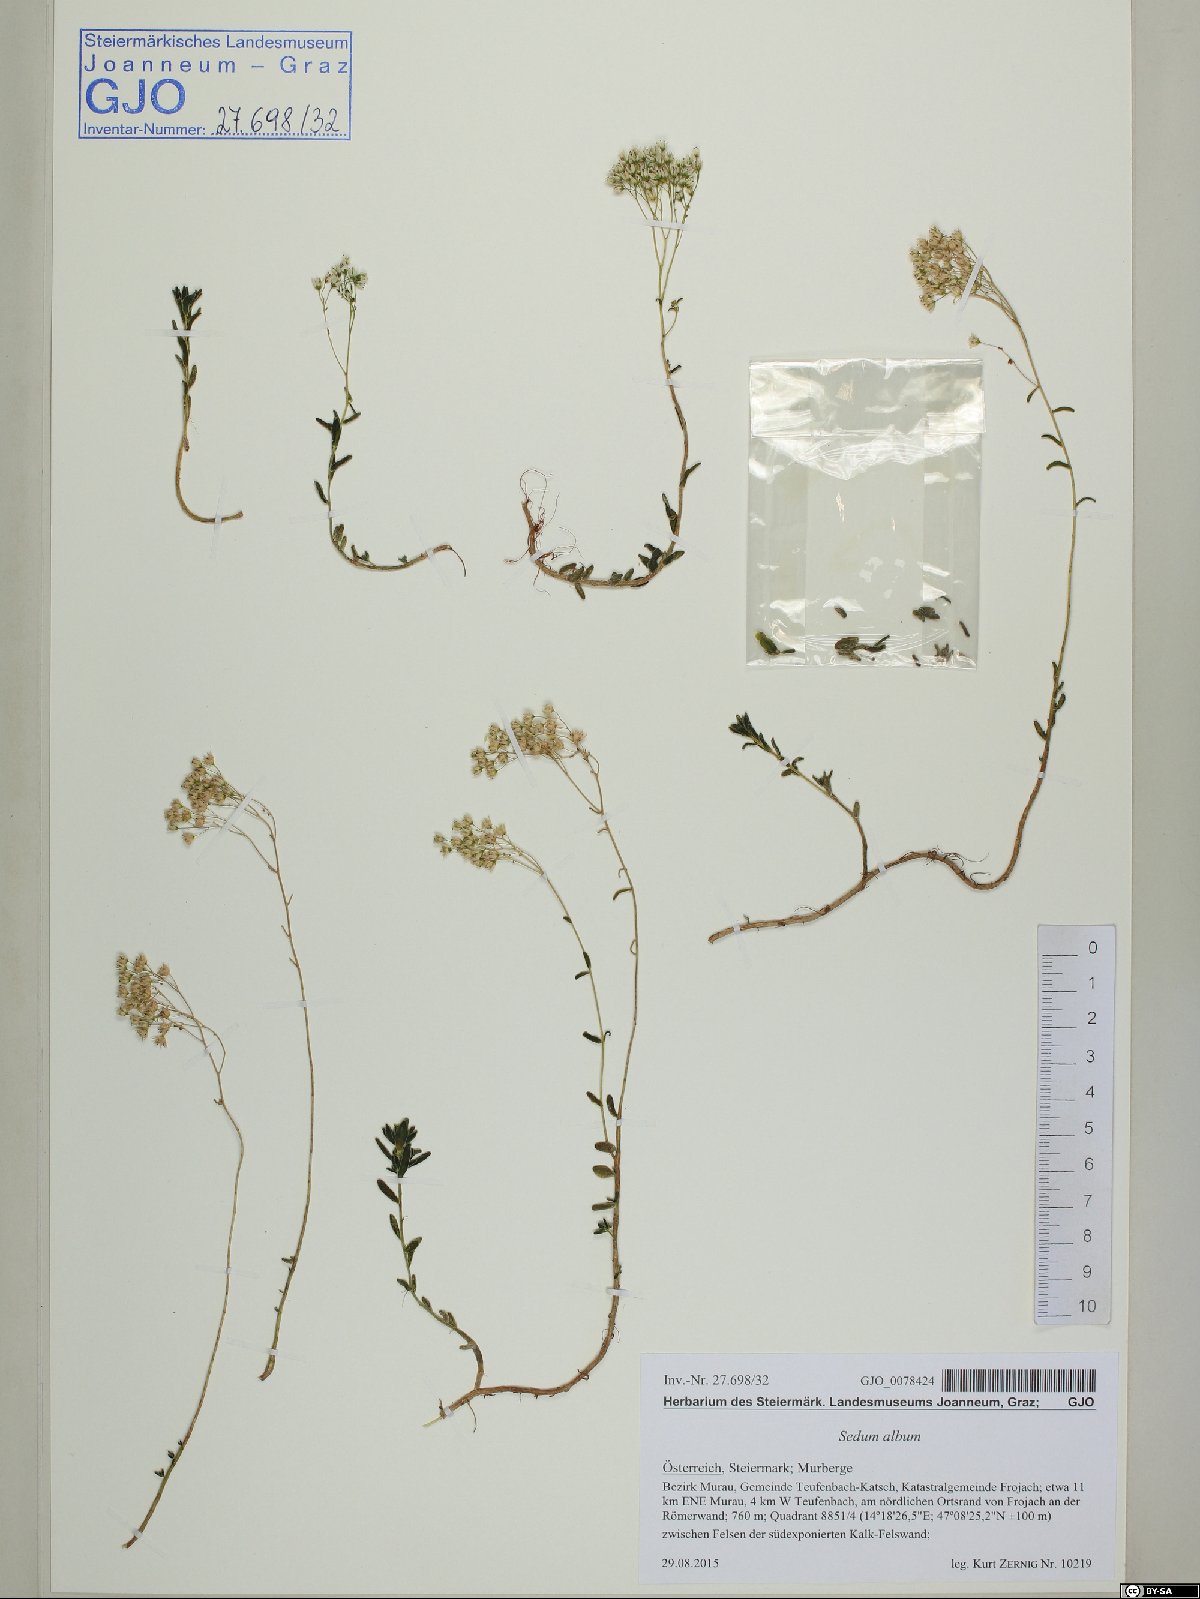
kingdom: Plantae
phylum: Tracheophyta
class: Magnoliopsida
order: Saxifragales
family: Crassulaceae
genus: Sedum
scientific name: Sedum album
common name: White stonecrop
